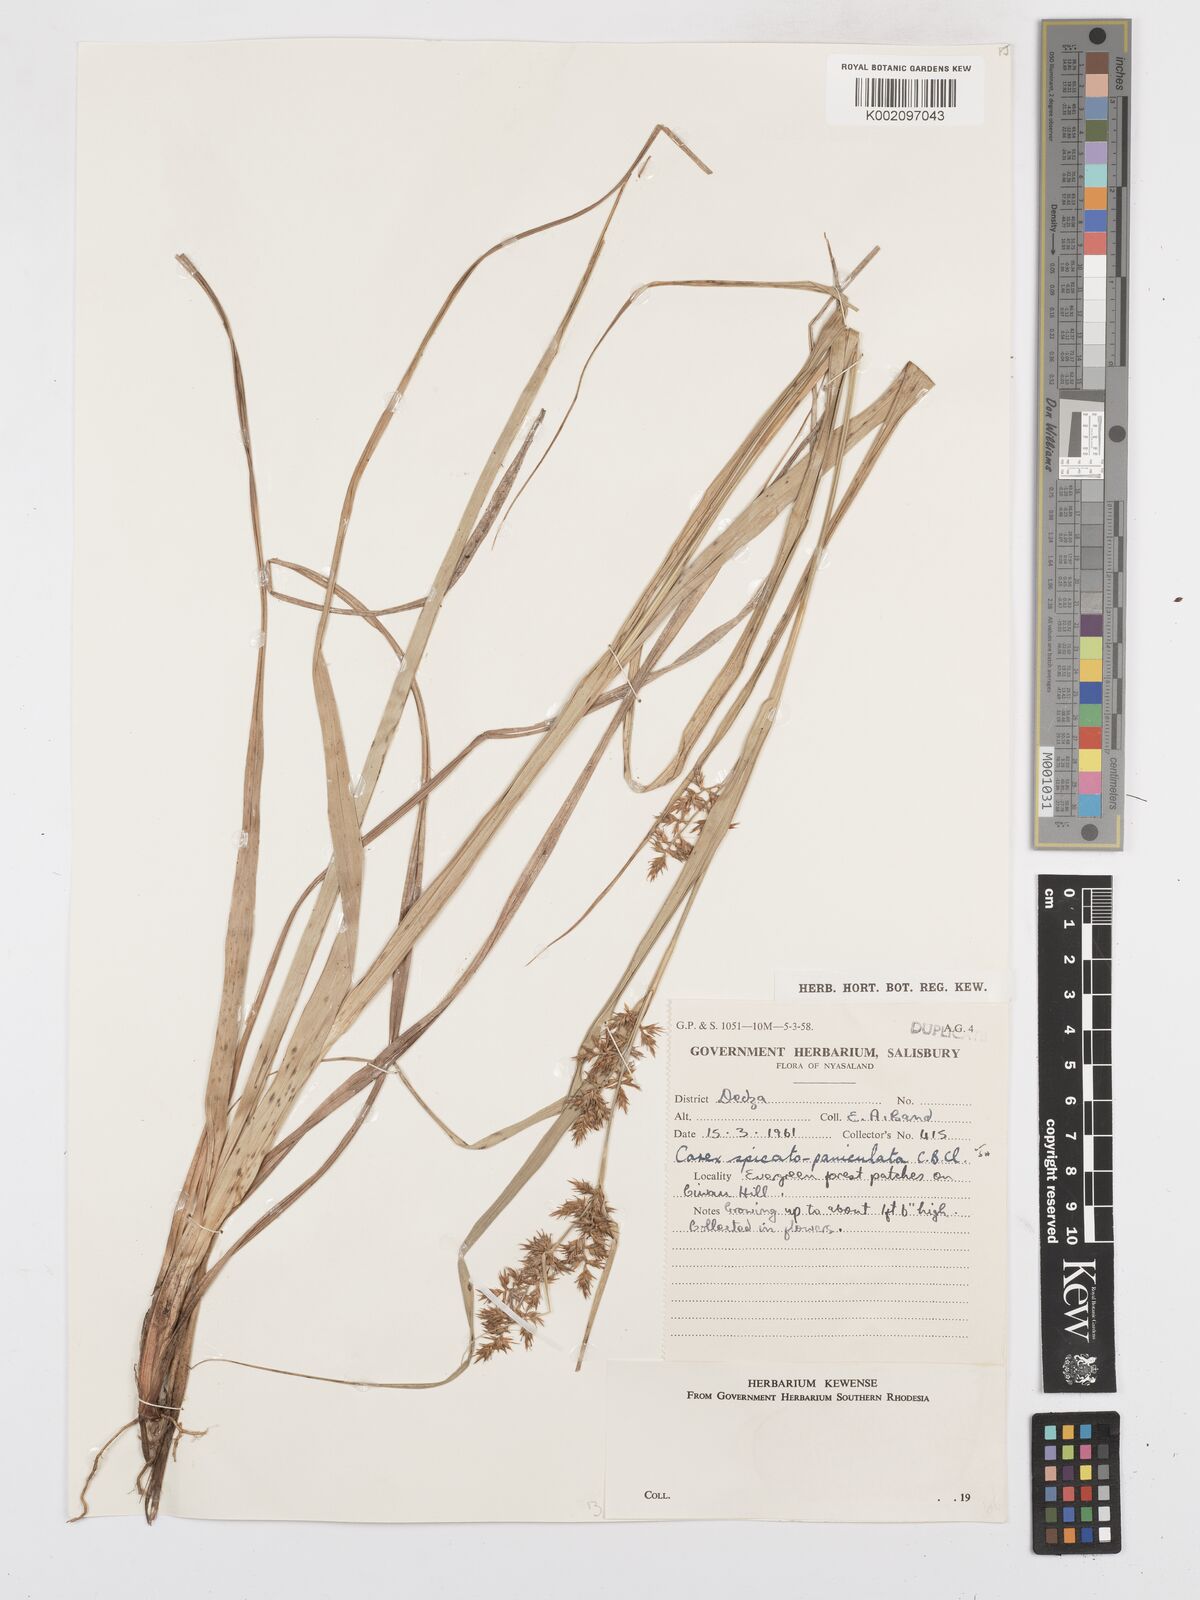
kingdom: Plantae
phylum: Tracheophyta
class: Liliopsida
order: Poales
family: Cyperaceae
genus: Carex
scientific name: Carex spicatopaniculata
